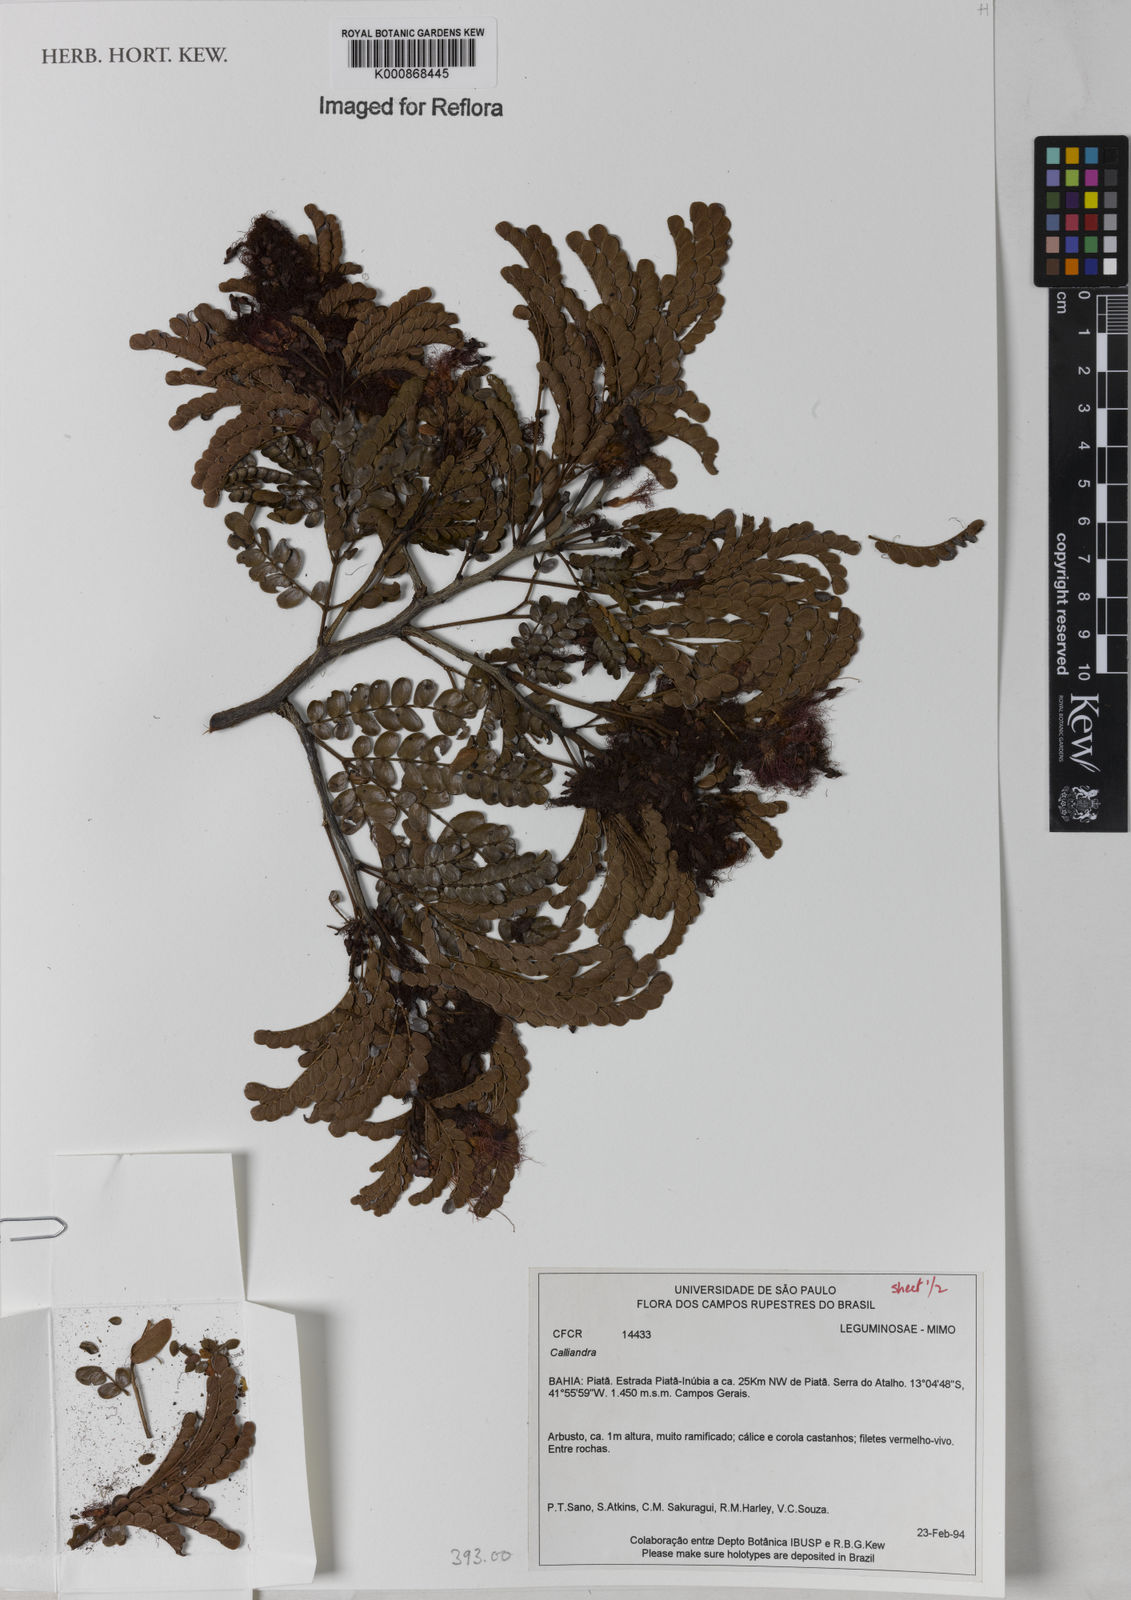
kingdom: Plantae
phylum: Tracheophyta
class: Magnoliopsida
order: Fabales
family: Fabaceae
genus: Calliandra
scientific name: Calliandra imbricata
